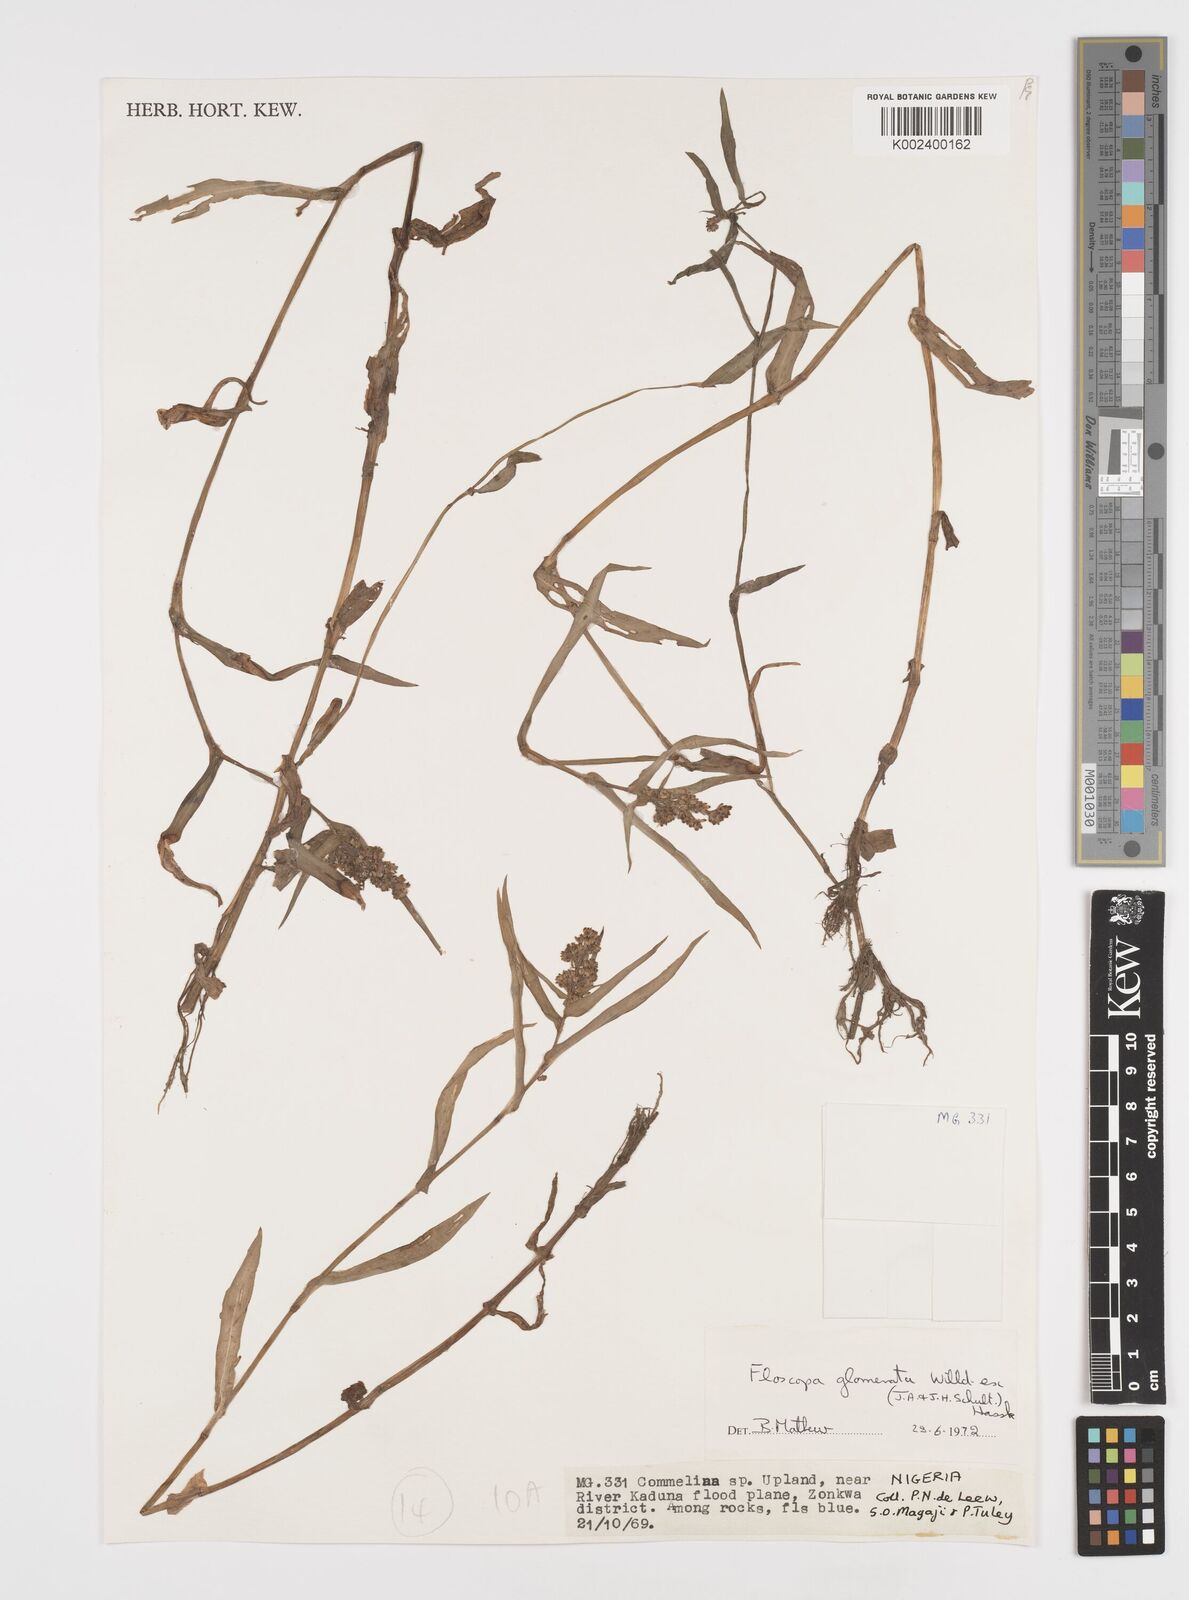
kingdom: Plantae
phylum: Tracheophyta
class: Liliopsida
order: Commelinales
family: Commelinaceae
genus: Floscopa
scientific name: Floscopa glomerata
